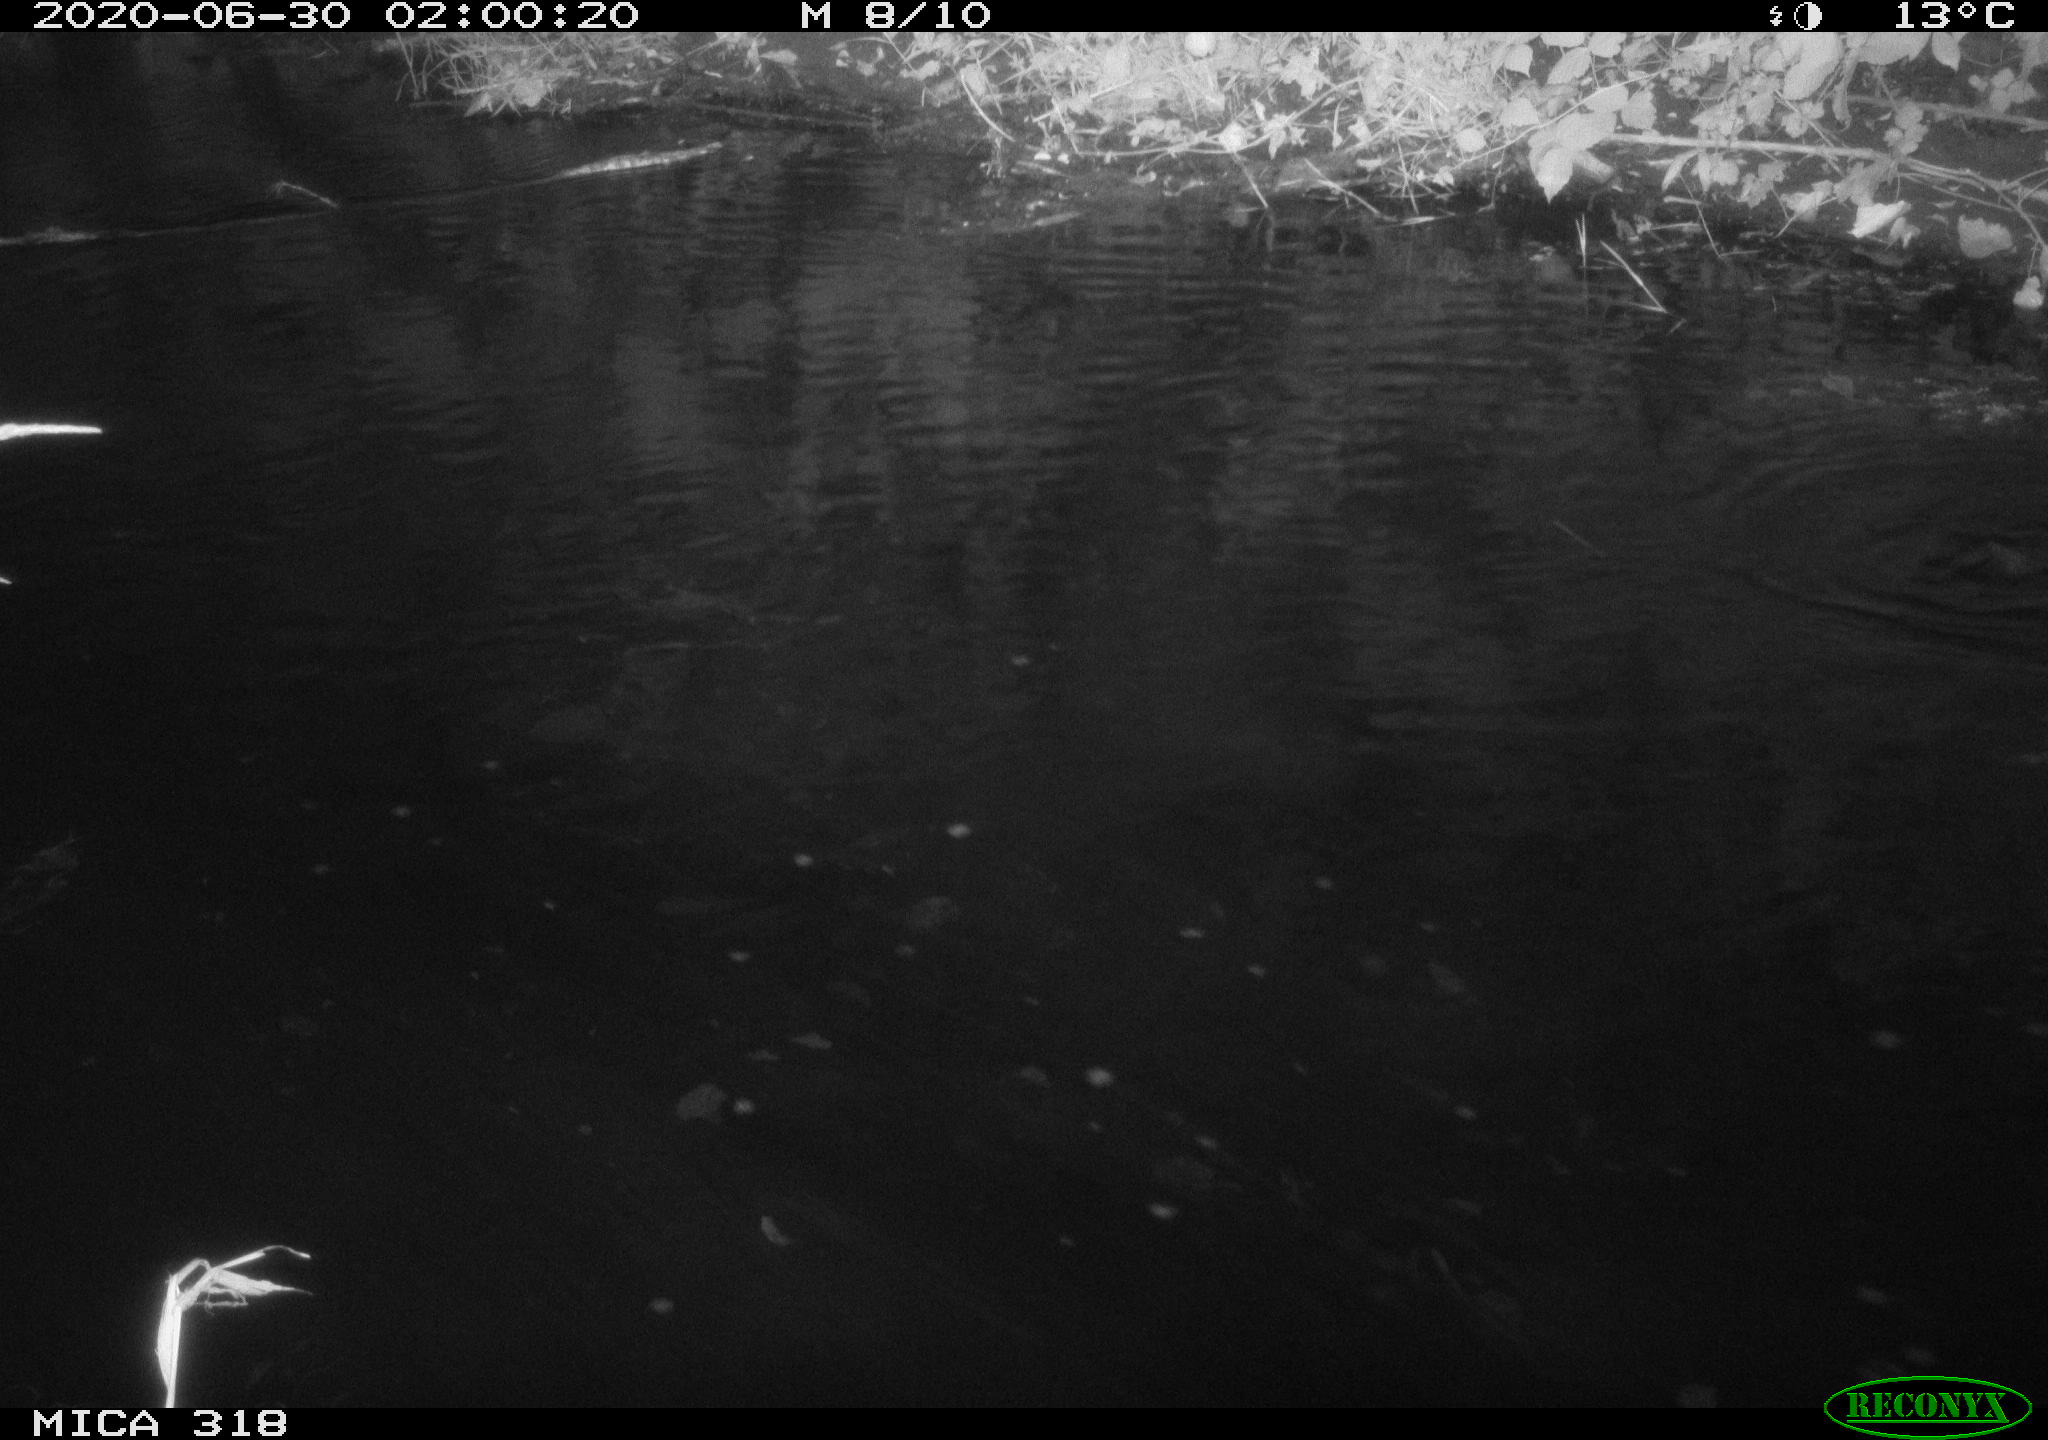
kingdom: Animalia
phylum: Chordata
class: Aves
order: Anseriformes
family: Anatidae
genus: Anas
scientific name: Anas platyrhynchos
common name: Mallard
